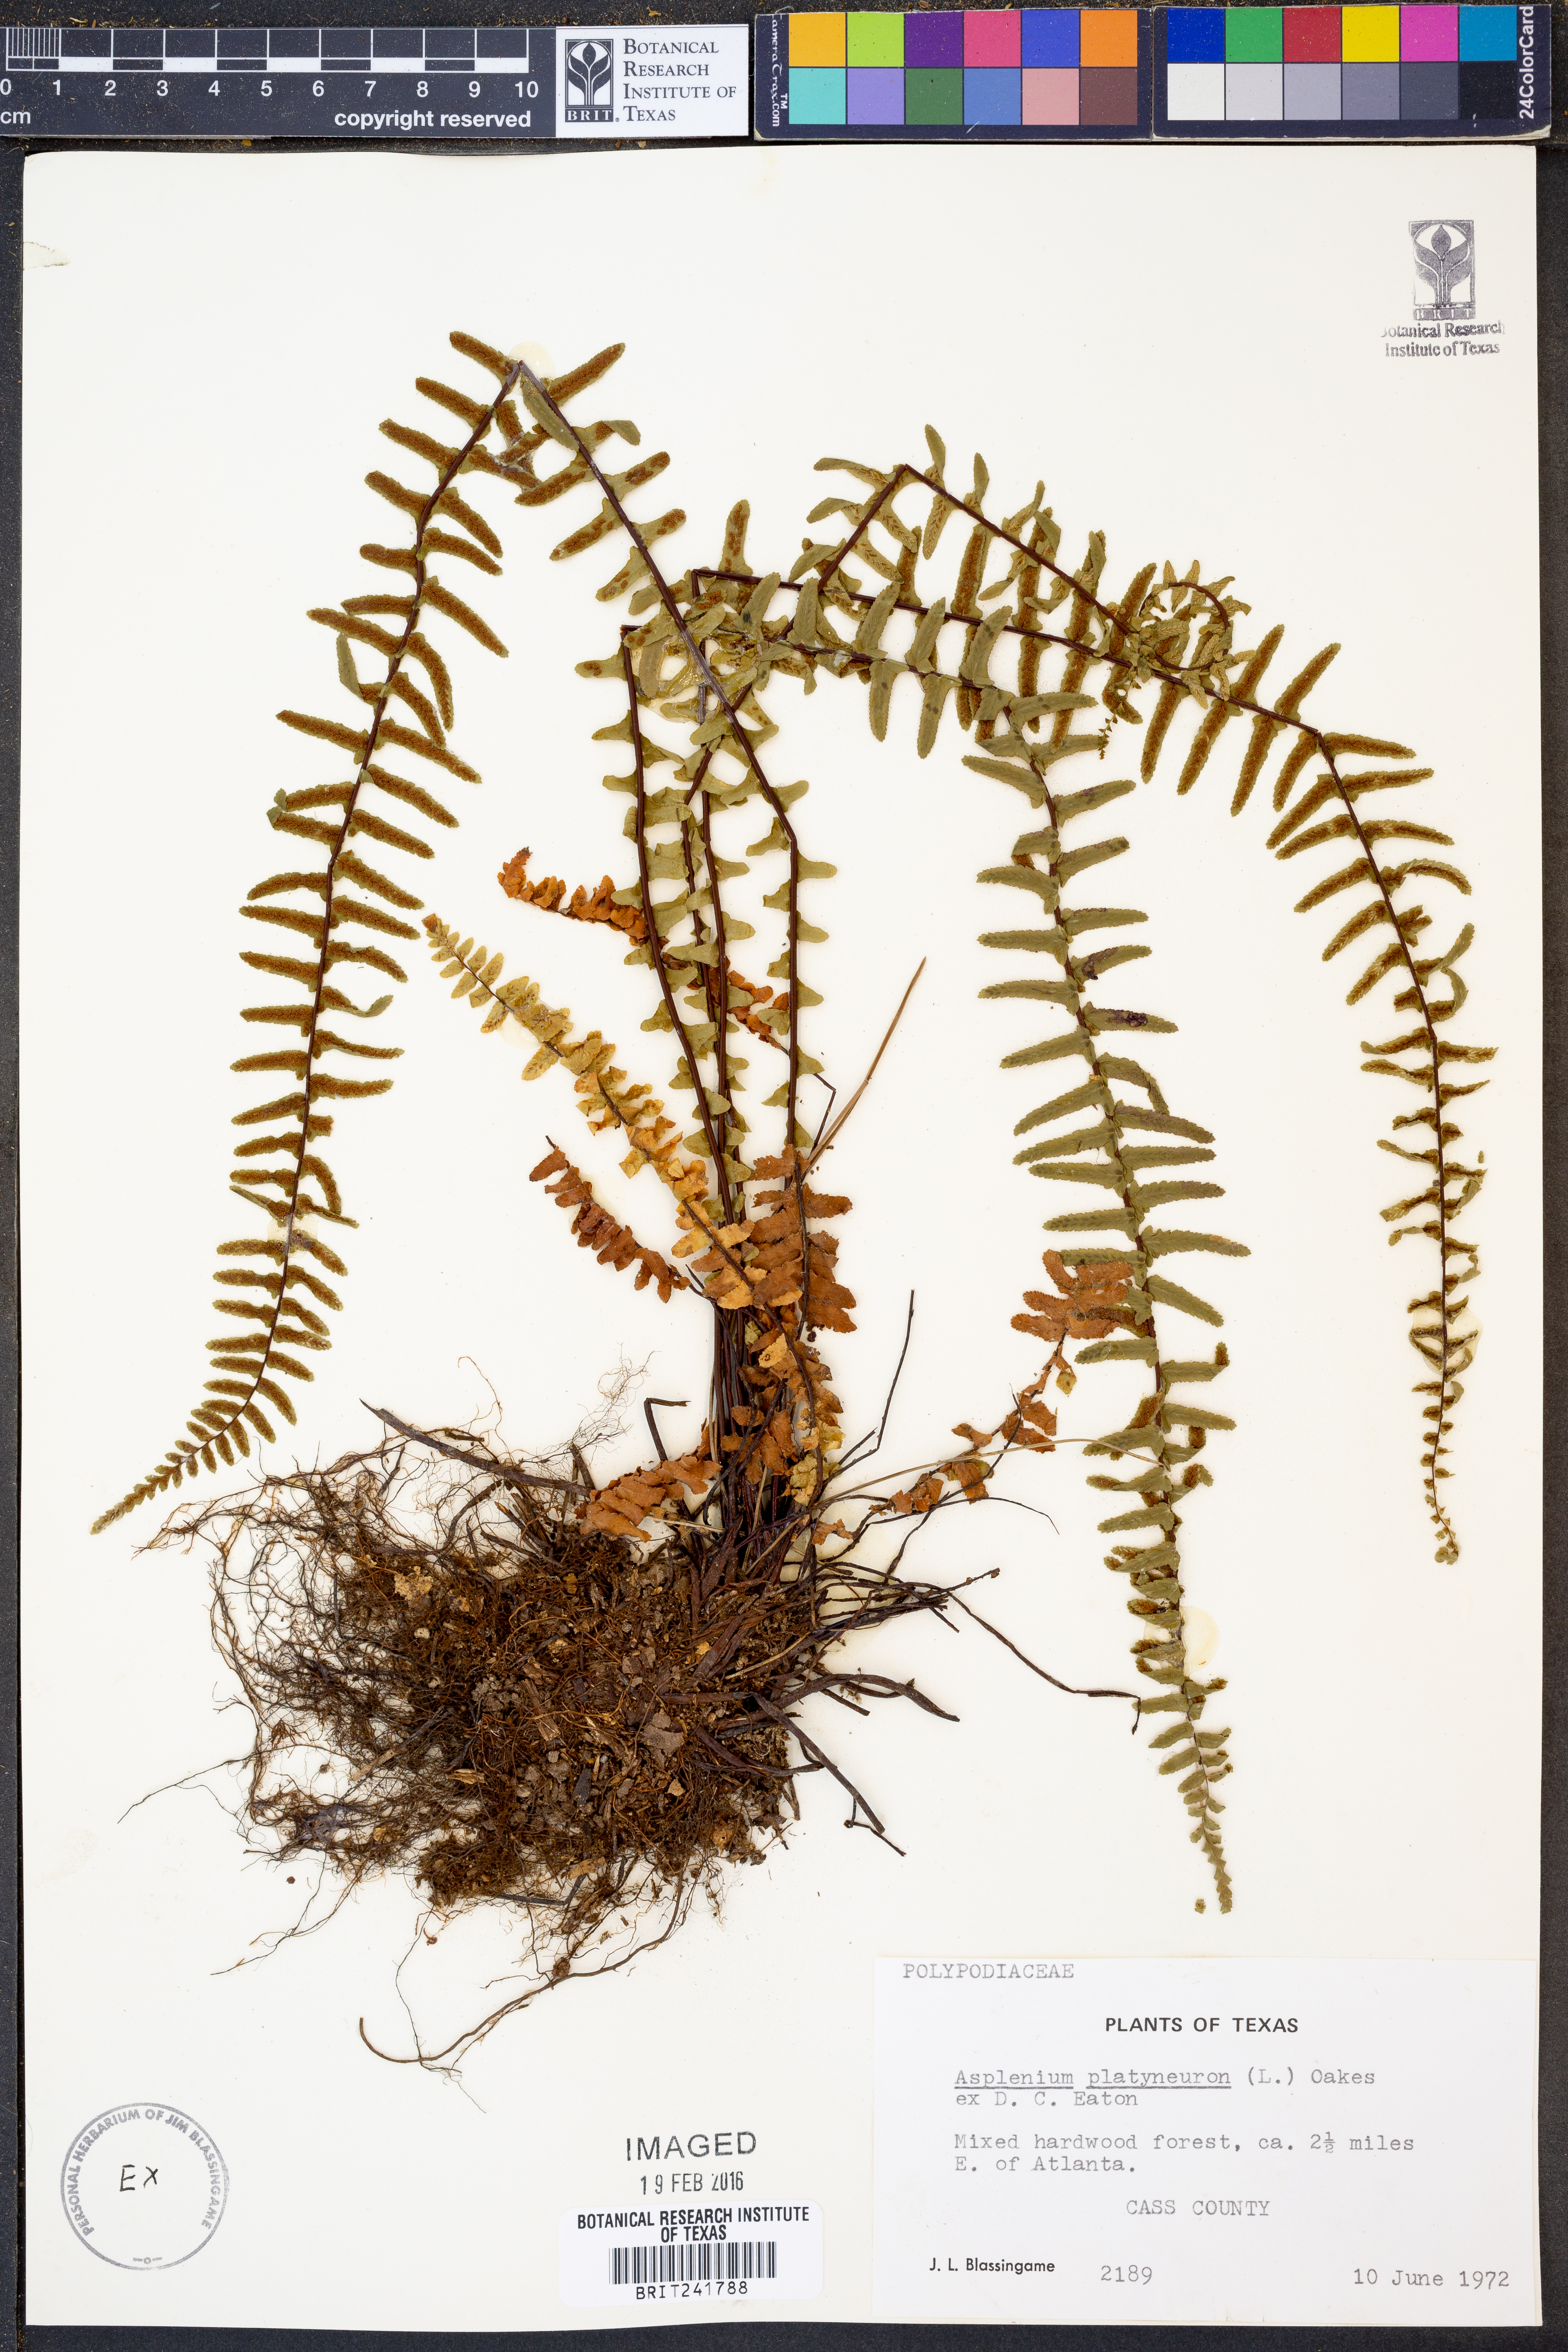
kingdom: Plantae
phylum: Tracheophyta
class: Polypodiopsida
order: Polypodiales
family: Aspleniaceae
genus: Asplenium
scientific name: Asplenium platyneuron
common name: Ebony spleenwort
